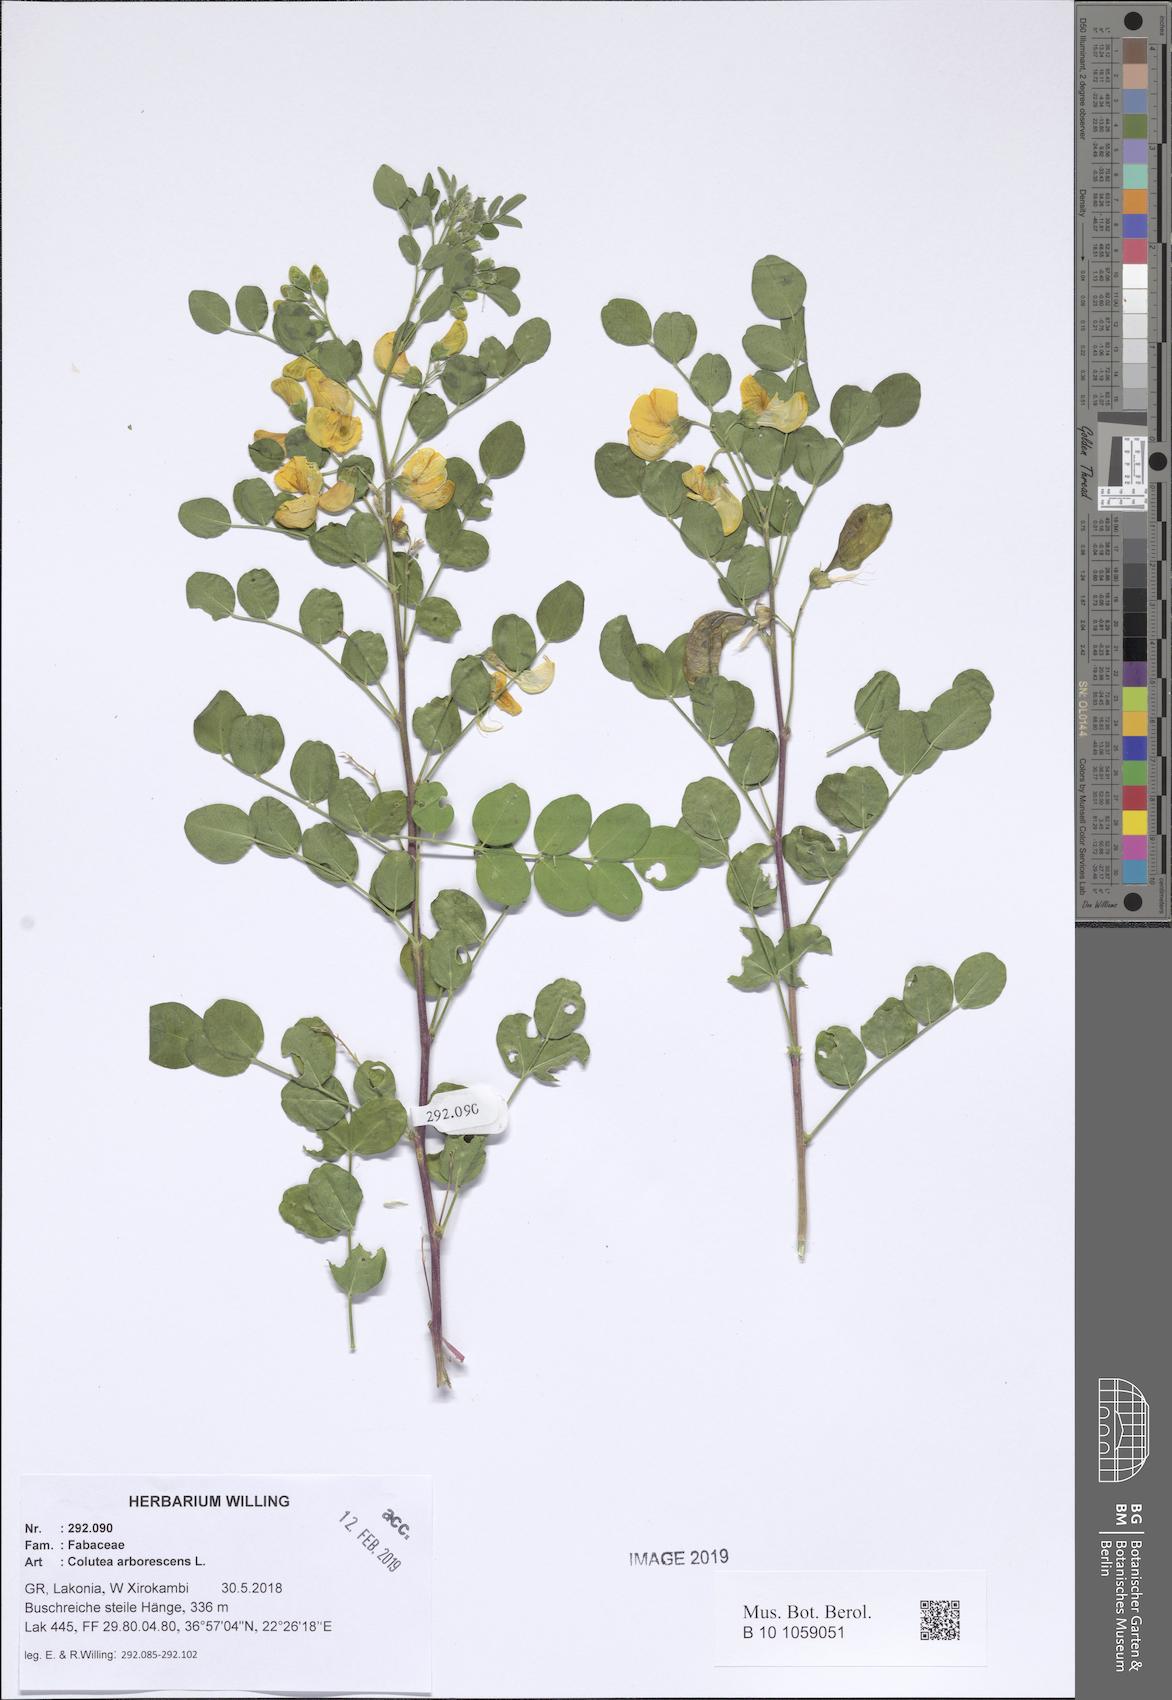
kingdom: Plantae
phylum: Tracheophyta
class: Magnoliopsida
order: Fabales
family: Fabaceae
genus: Colutea
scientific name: Colutea arborescens
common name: Bladder-senna
